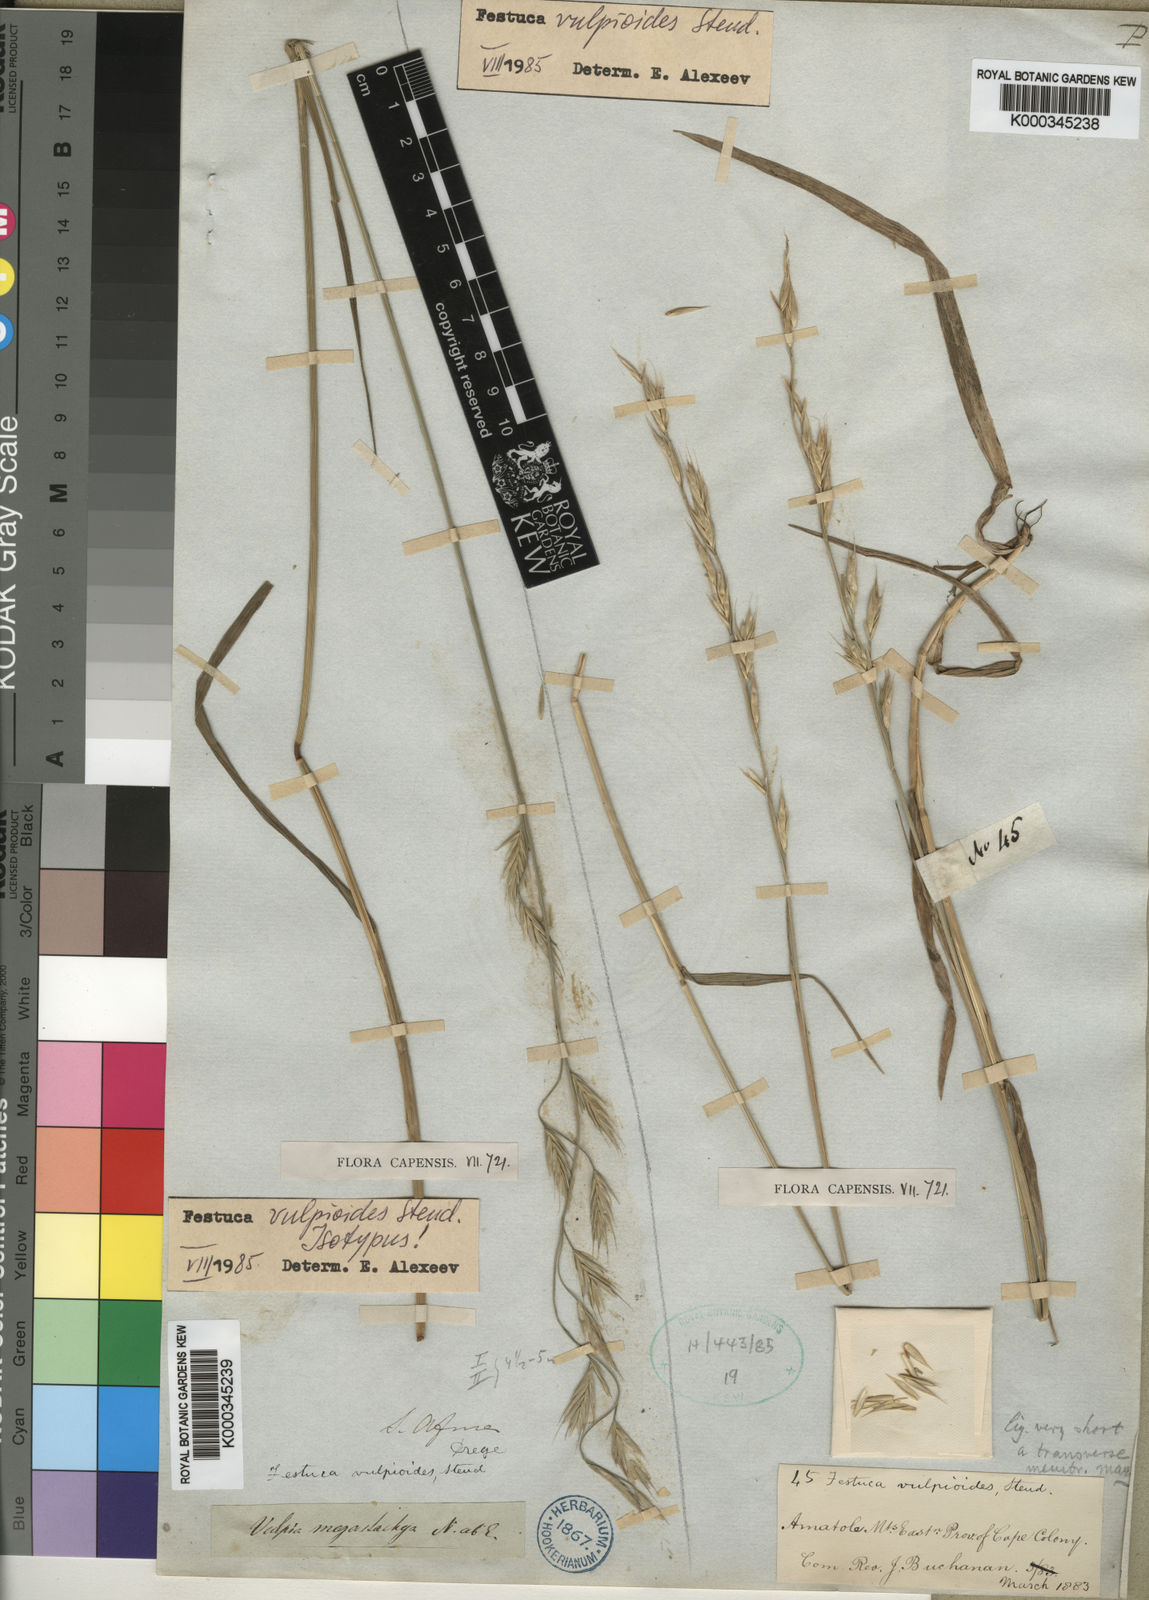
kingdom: Plantae
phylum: Tracheophyta
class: Liliopsida
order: Poales
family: Poaceae
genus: Festuca
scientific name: Festuca vulpioides
